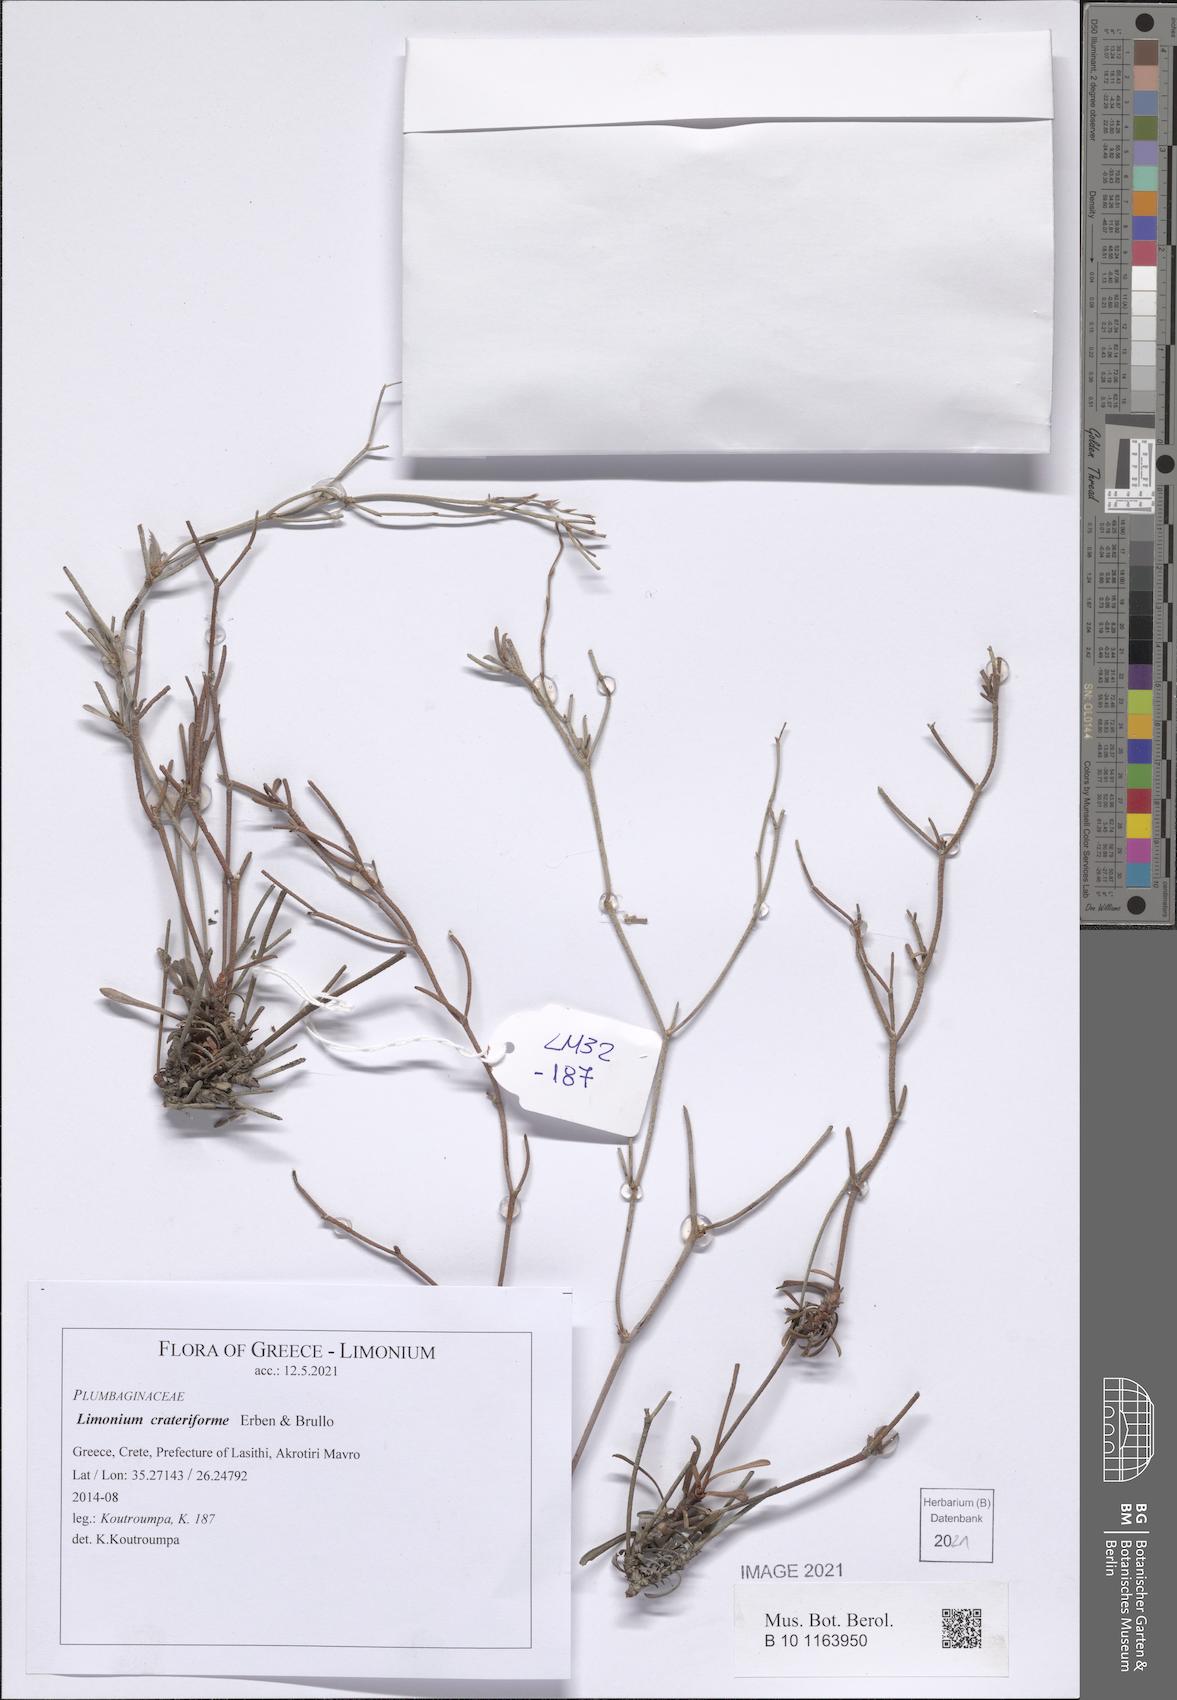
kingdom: Plantae
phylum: Tracheophyta
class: Magnoliopsida
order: Caryophyllales
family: Plumbaginaceae
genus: Limonium
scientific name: Limonium crateriforme
